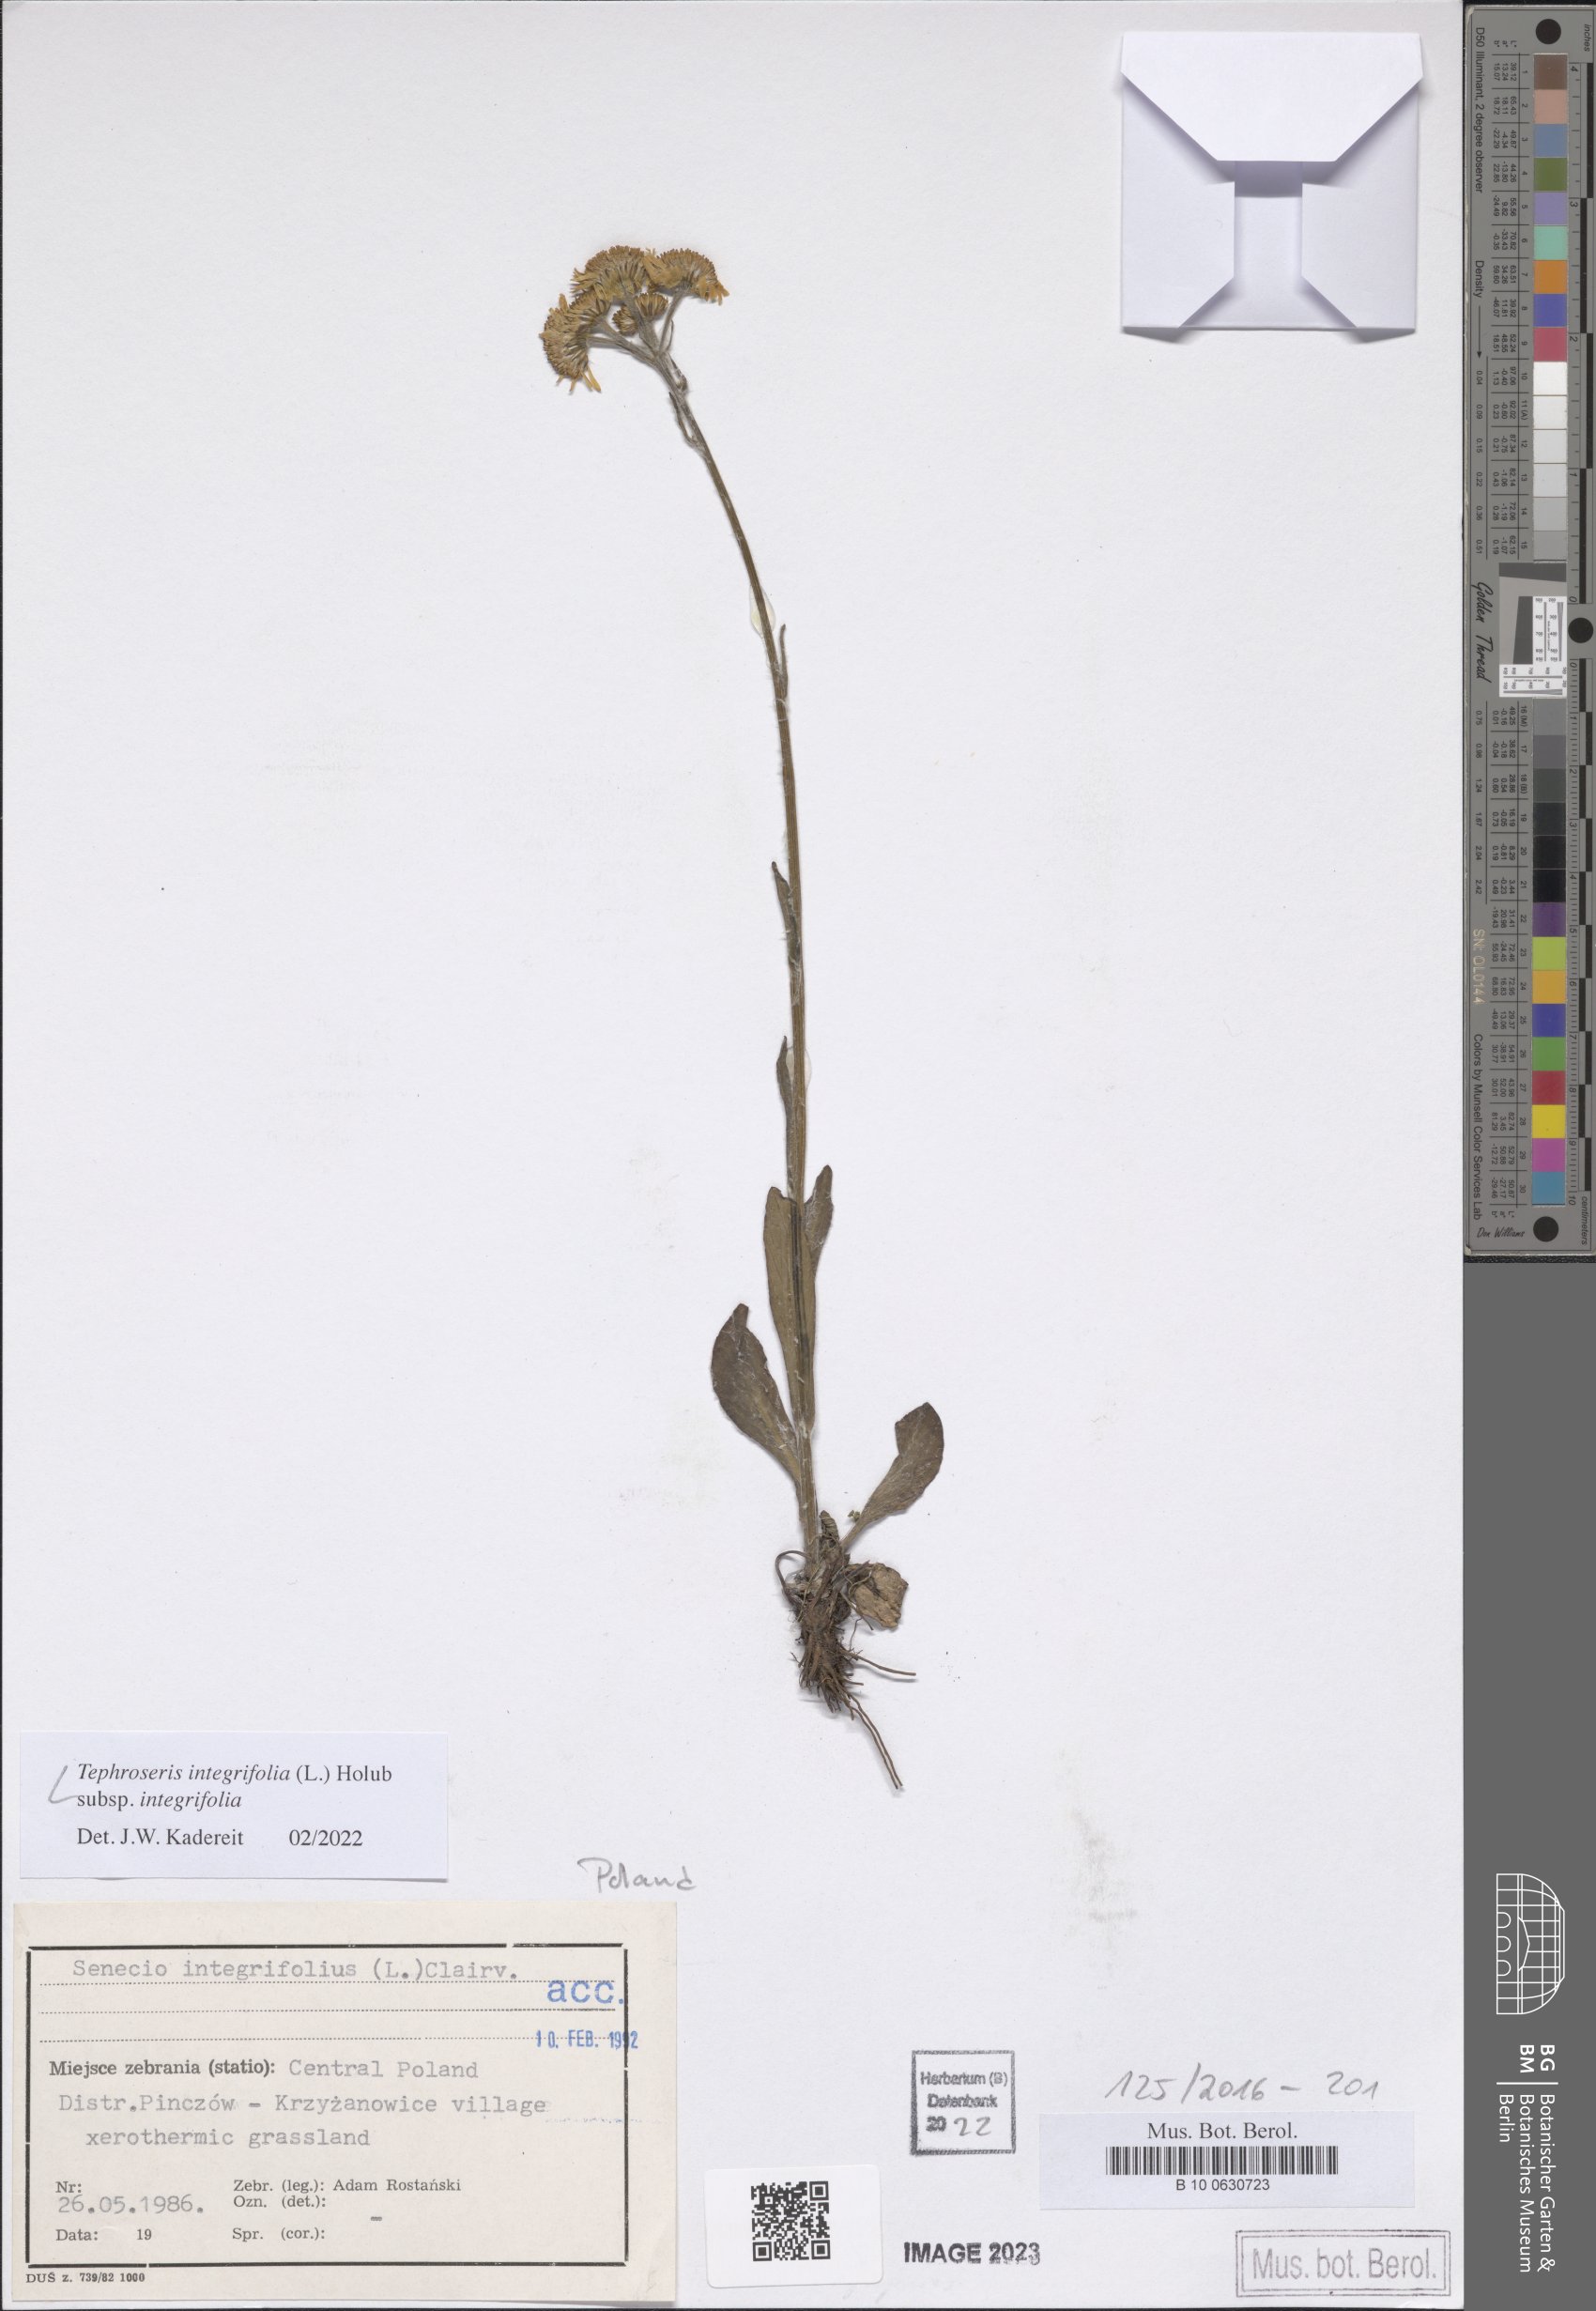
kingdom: Plantae
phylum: Tracheophyta
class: Magnoliopsida
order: Asterales
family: Asteraceae
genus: Tephroseris
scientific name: Tephroseris integrifolia
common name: Field fleawort
